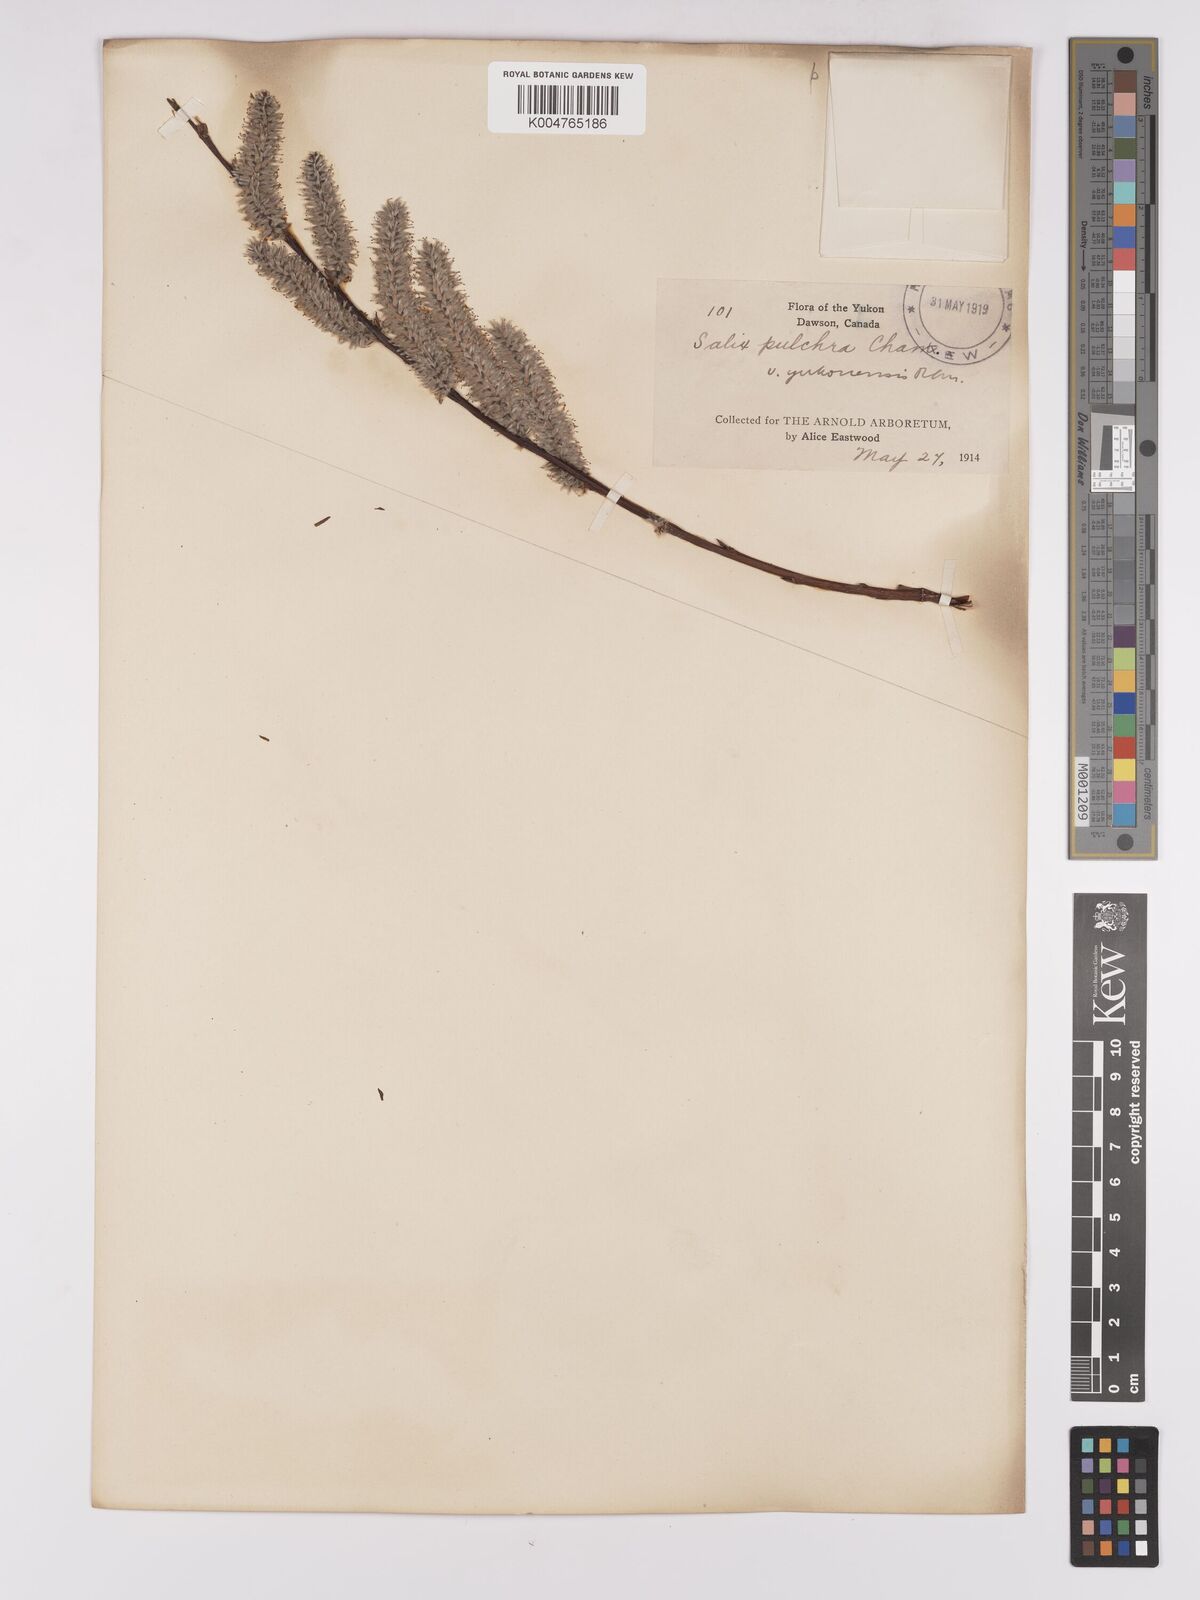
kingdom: Plantae
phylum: Tracheophyta
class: Magnoliopsida
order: Malpighiales
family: Salicaceae
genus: Salix
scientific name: Salix pulchra
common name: Diamond-leaved willow
